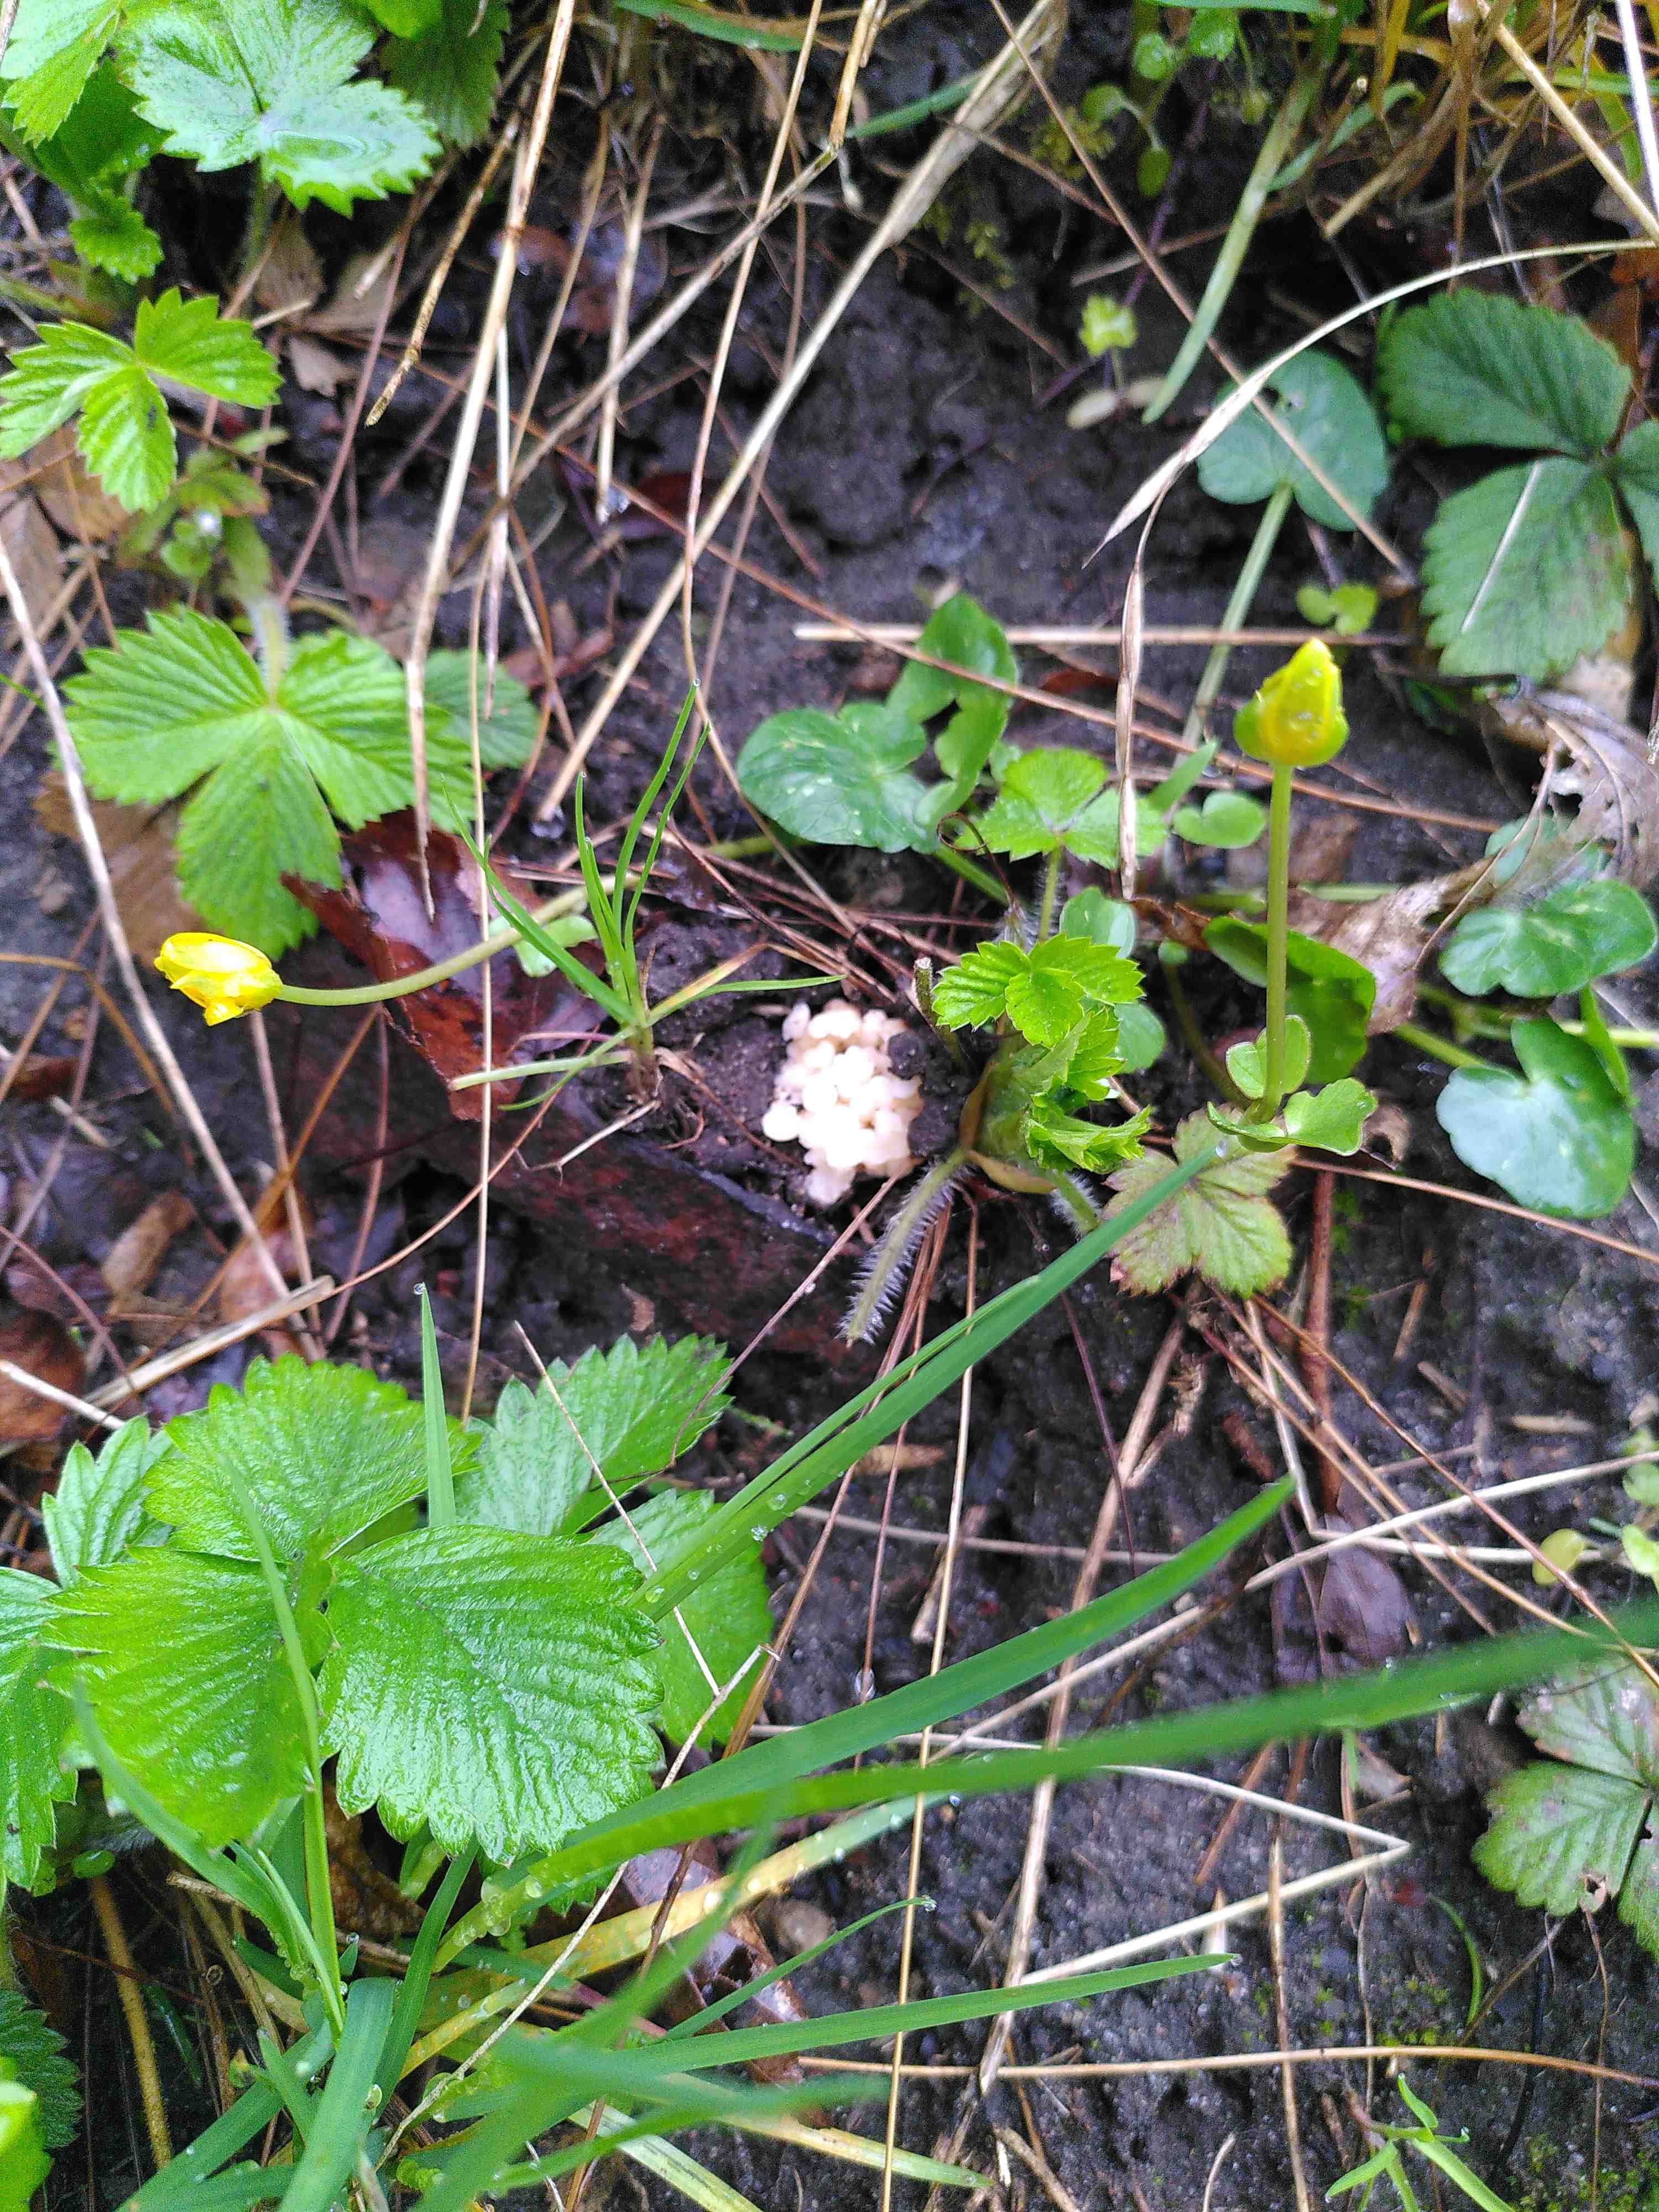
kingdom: Fungi
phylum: Ascomycota
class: Pezizomycetes
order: Pezizales
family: Morchellaceae
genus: Morchella
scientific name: Morchella esculenta
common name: almindelig morkel
